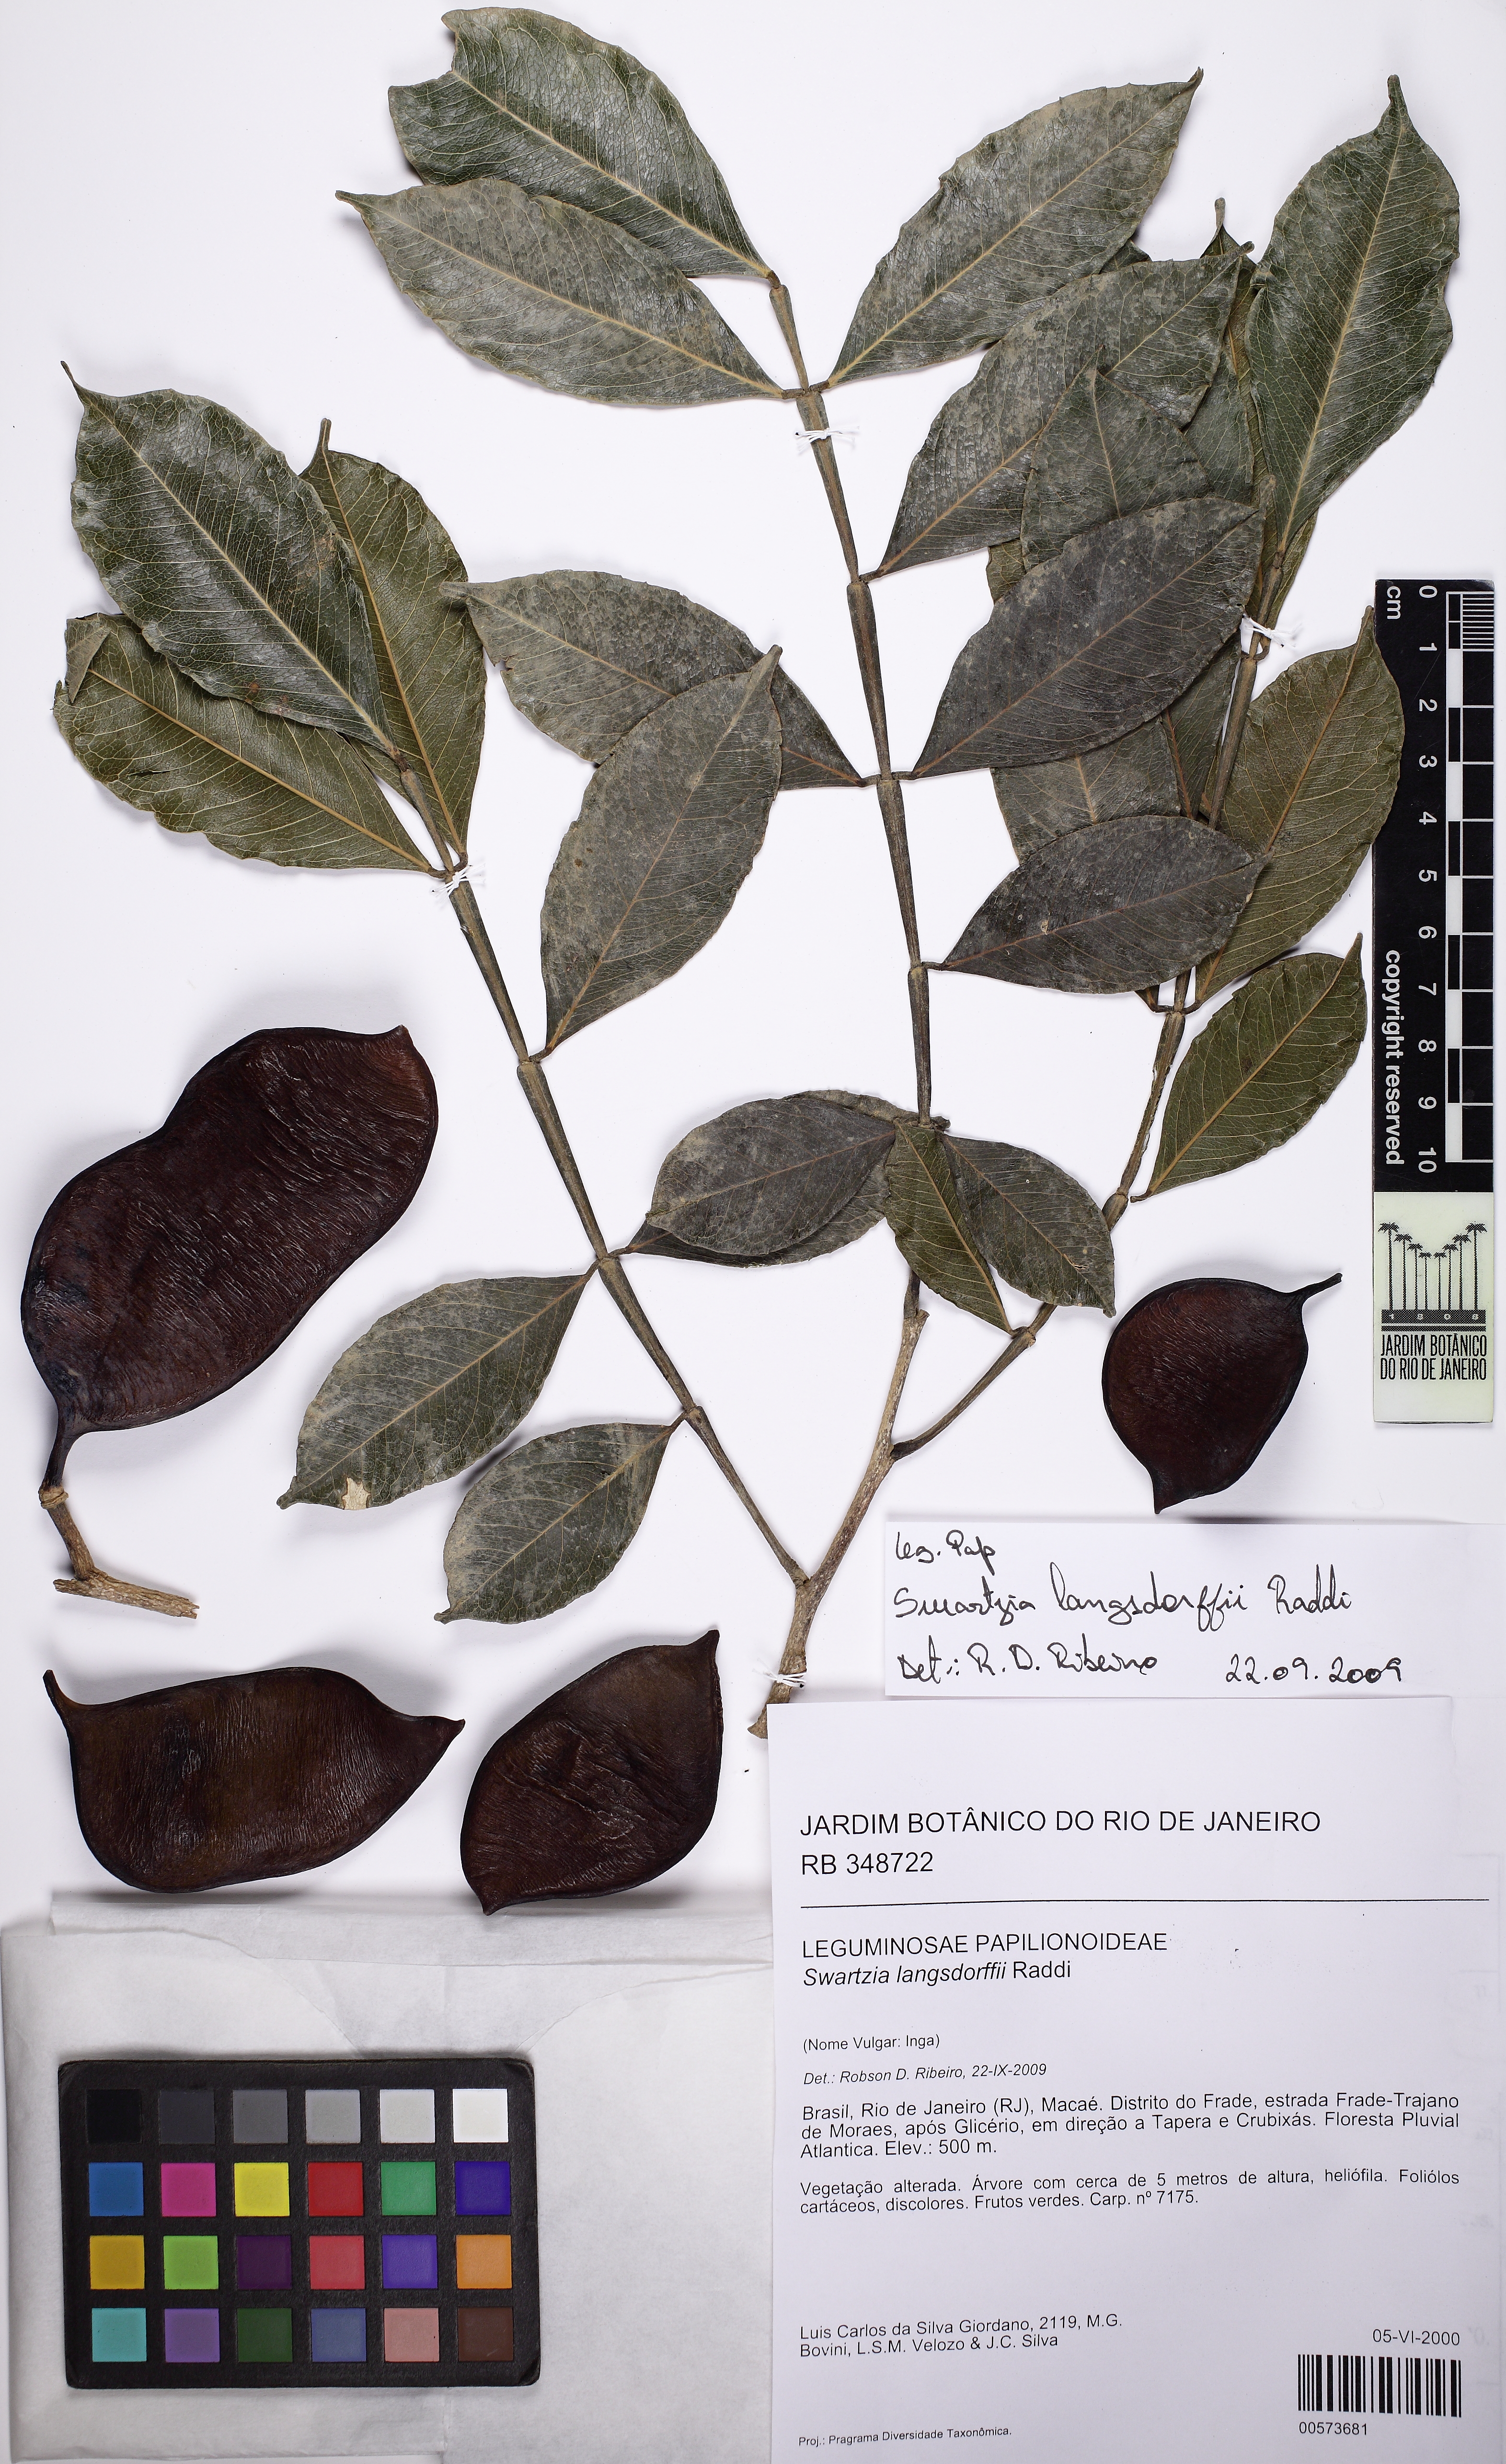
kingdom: Plantae
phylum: Tracheophyta
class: Magnoliopsida
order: Fabales
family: Fabaceae
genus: Swartzia
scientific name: Swartzia langsdorffii
